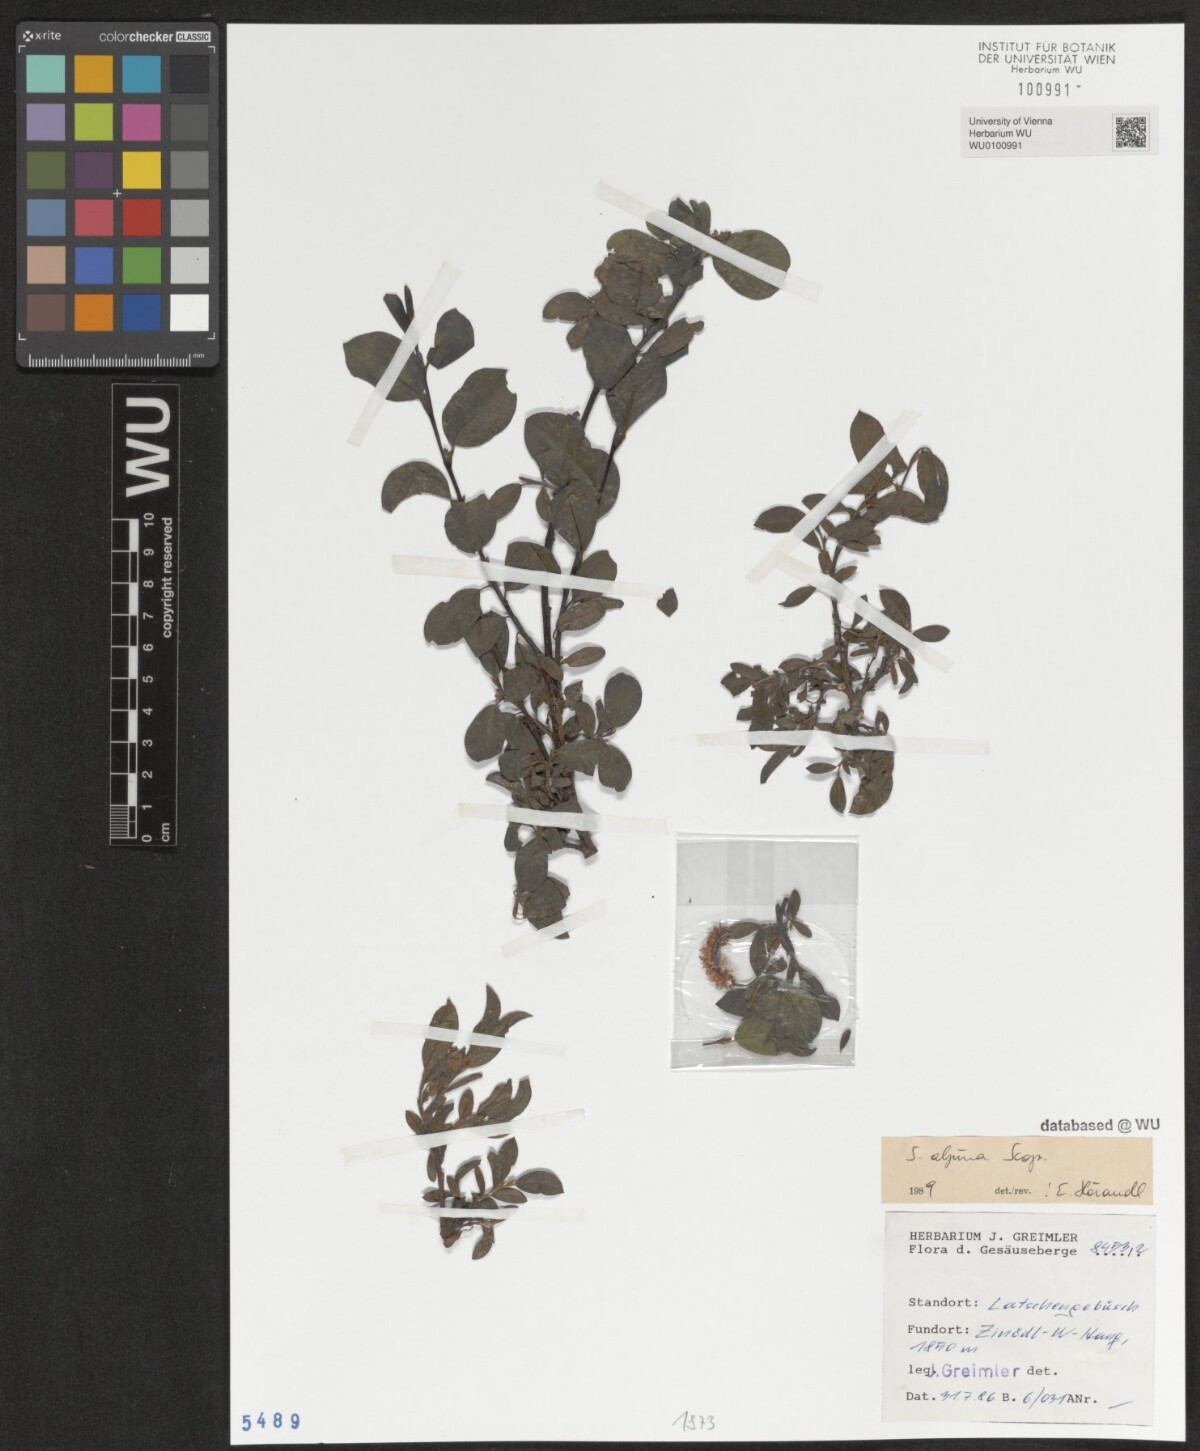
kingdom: Plantae
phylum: Tracheophyta
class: Magnoliopsida
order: Malpighiales
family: Salicaceae
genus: Salix
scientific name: Salix alpina
